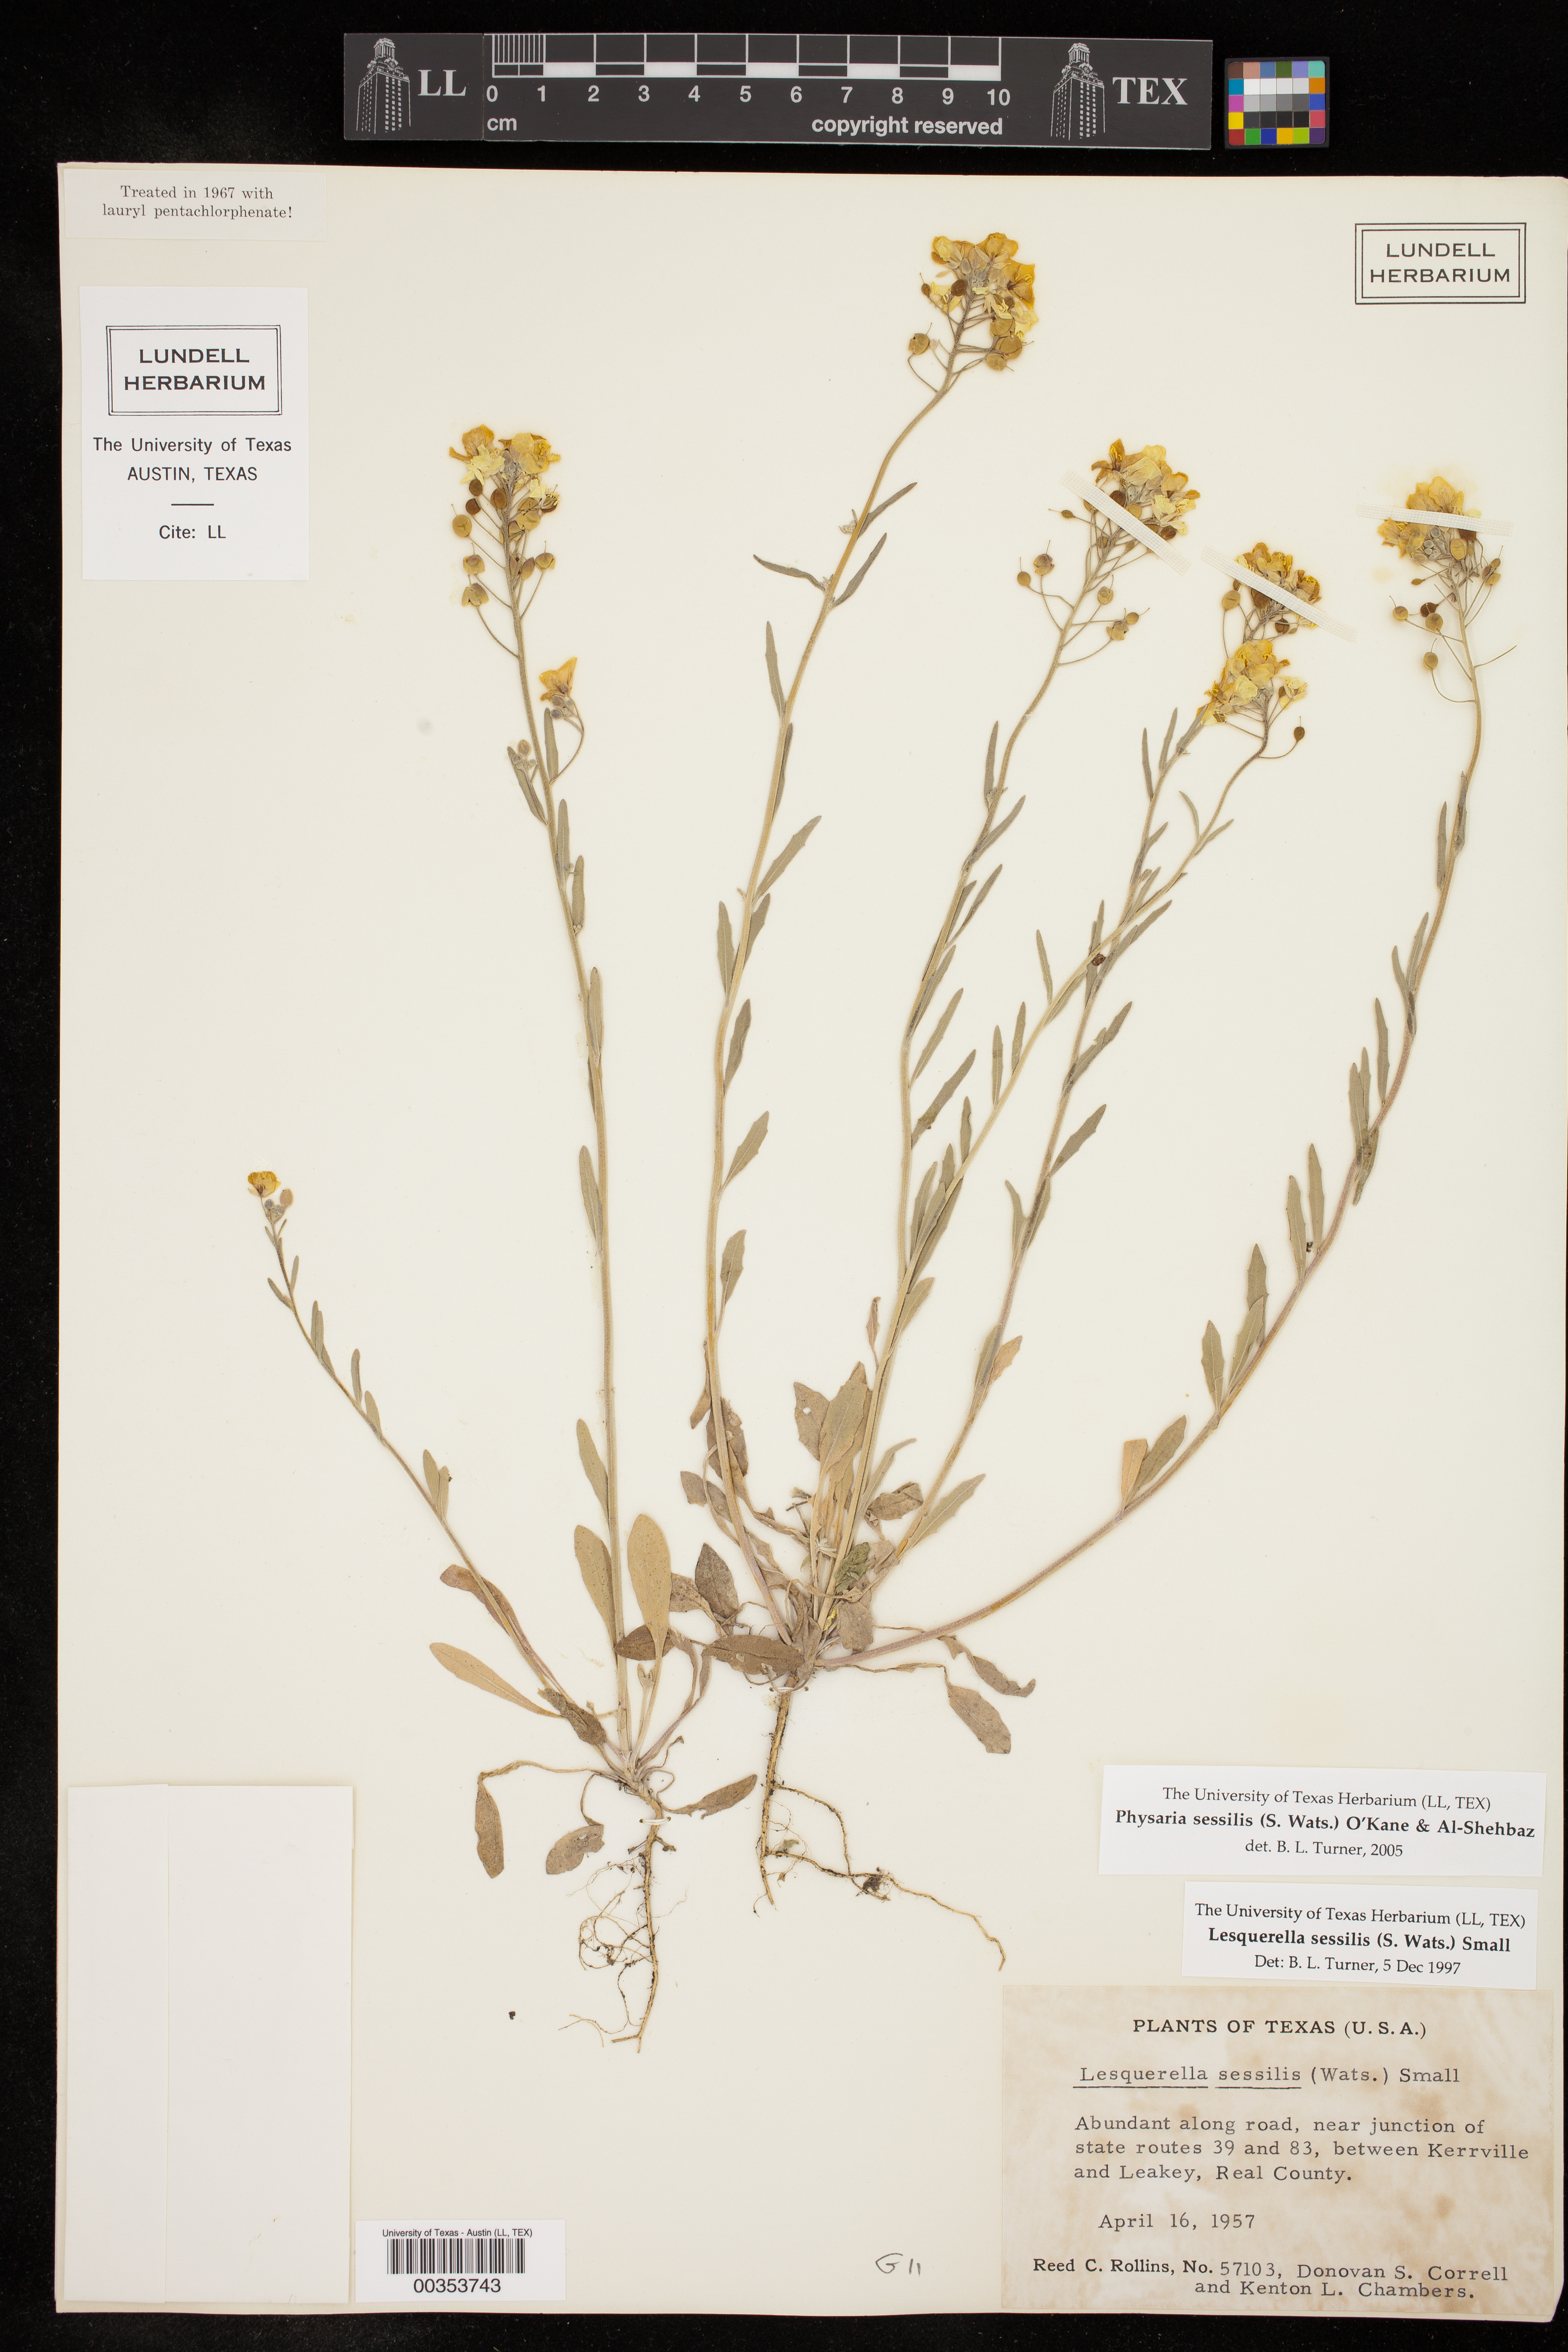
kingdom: Plantae
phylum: Tracheophyta
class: Magnoliopsida
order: Brassicales
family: Brassicaceae
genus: Physaria
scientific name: Physaria sessilis
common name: Sessile bladderpod
